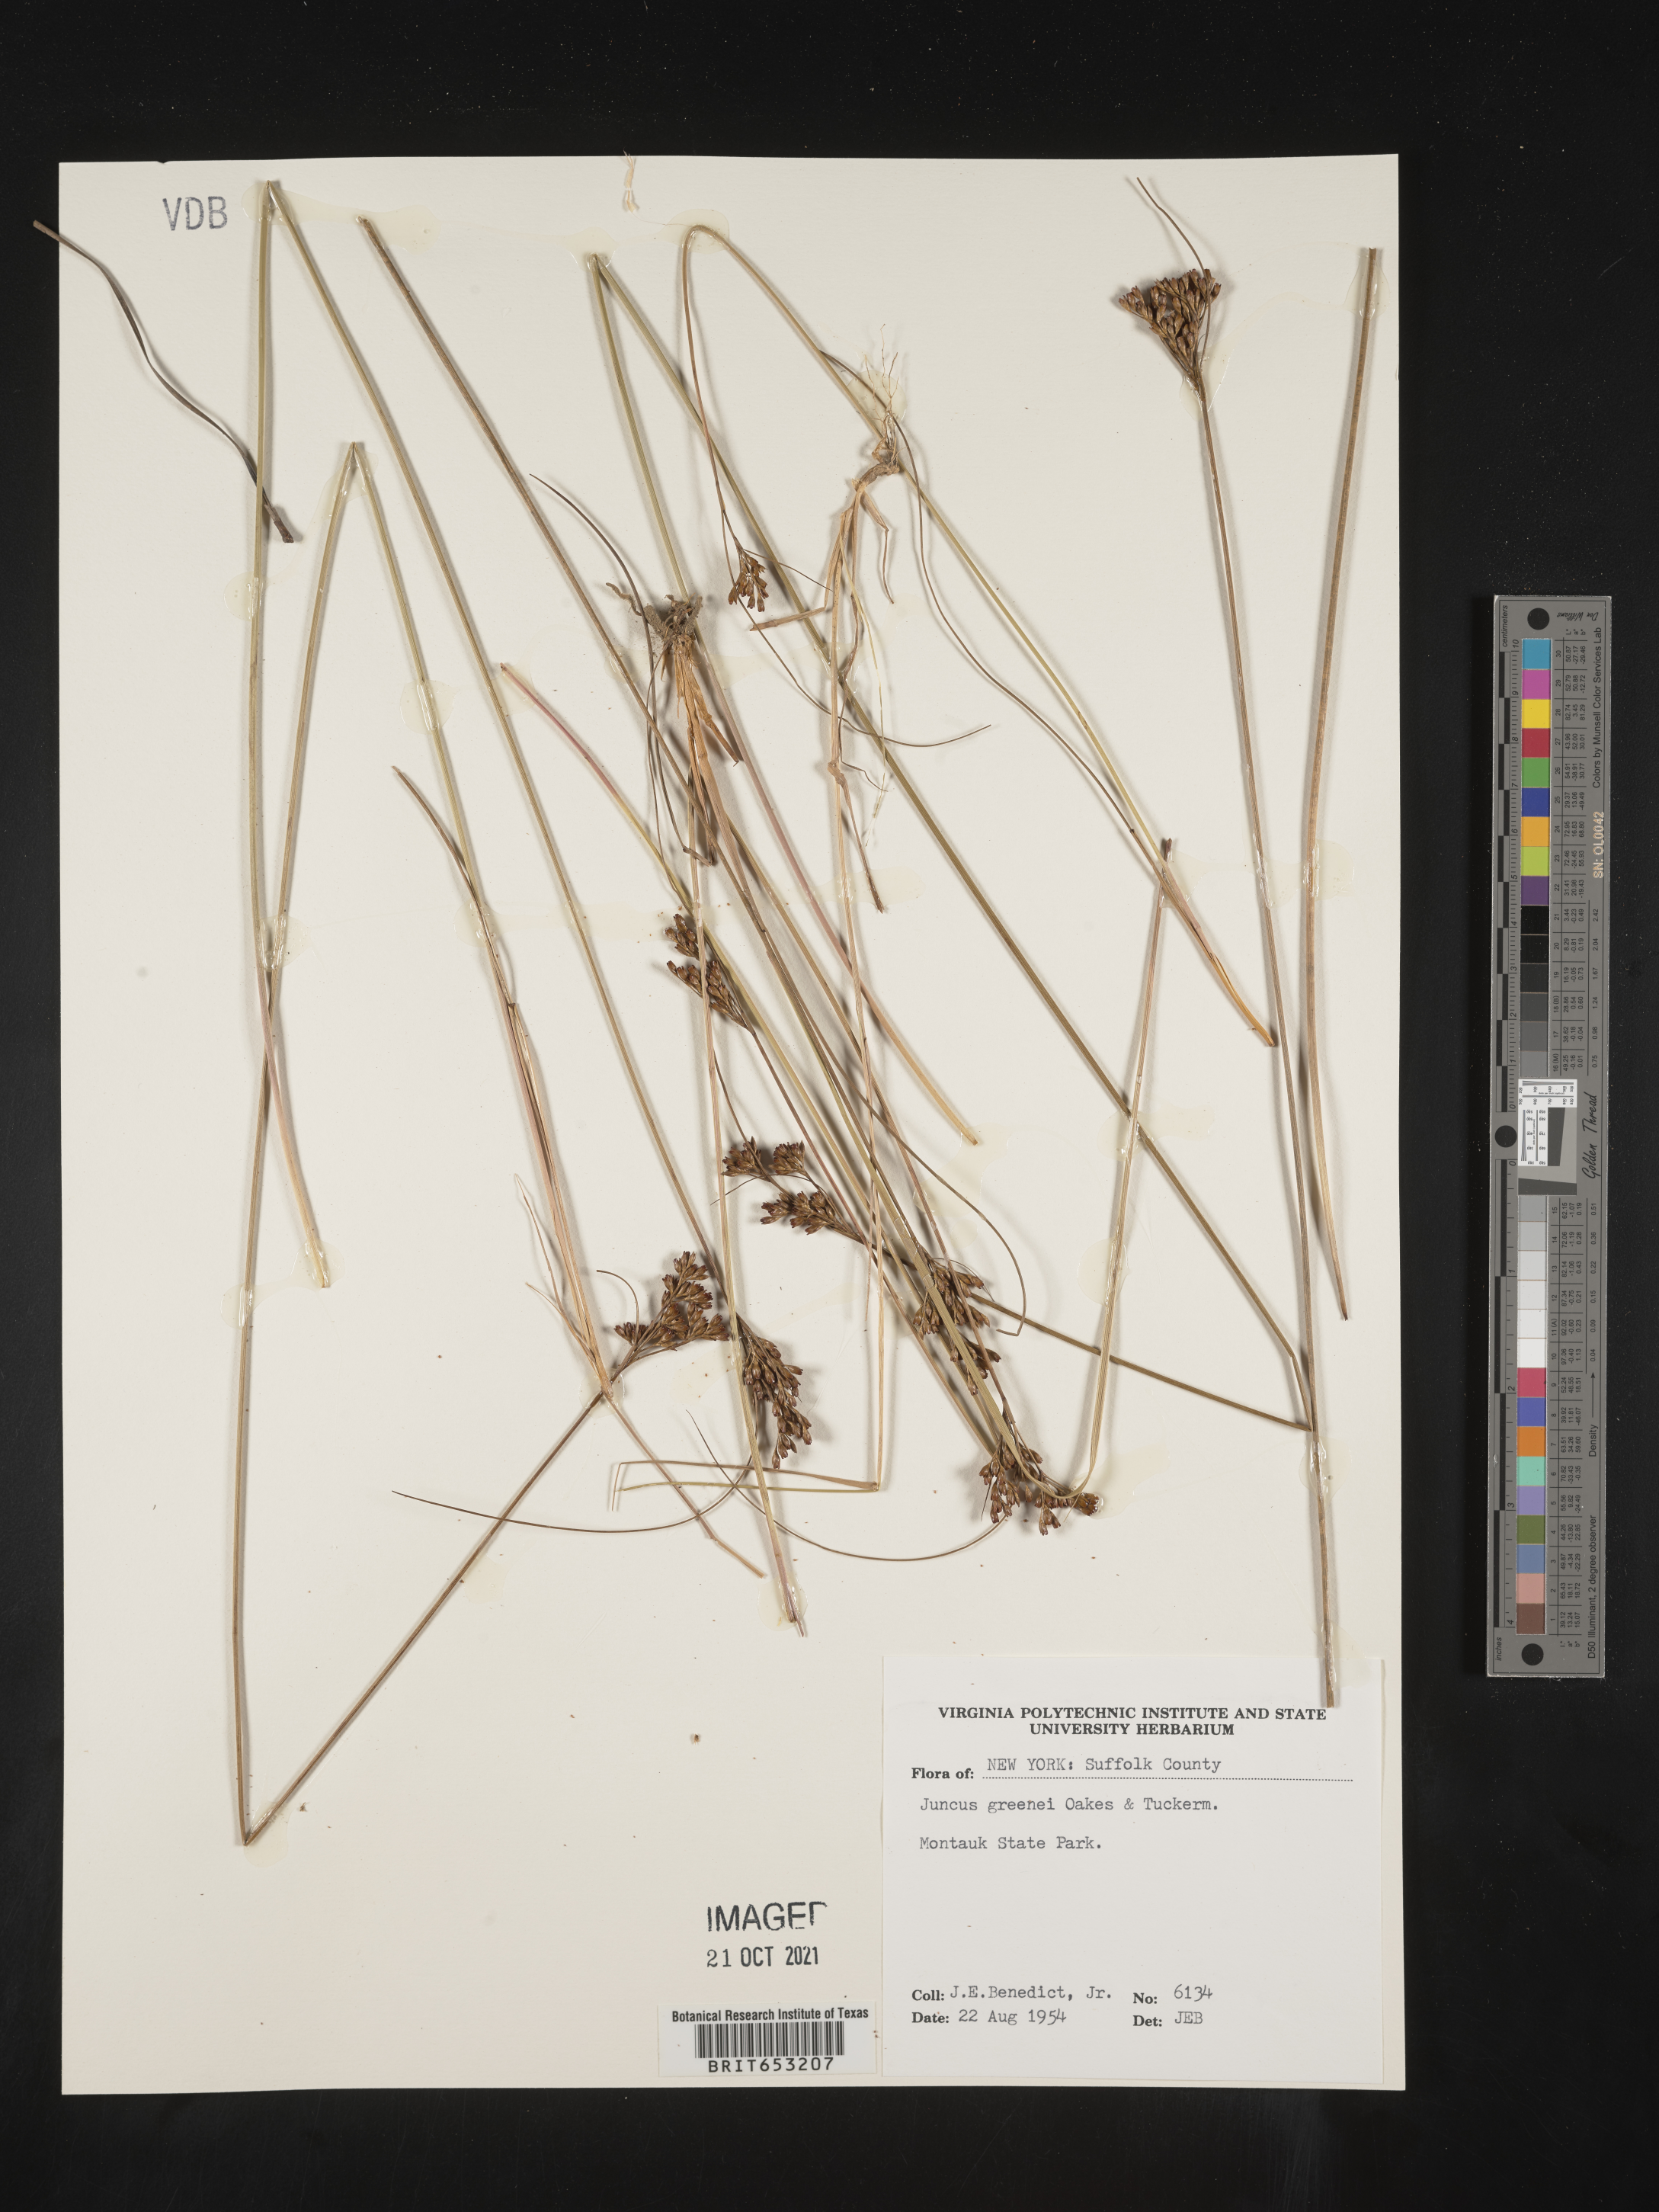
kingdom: Plantae
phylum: Tracheophyta
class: Liliopsida
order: Poales
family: Juncaceae
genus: Juncus
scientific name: Juncus greenei
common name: Greene's rush
